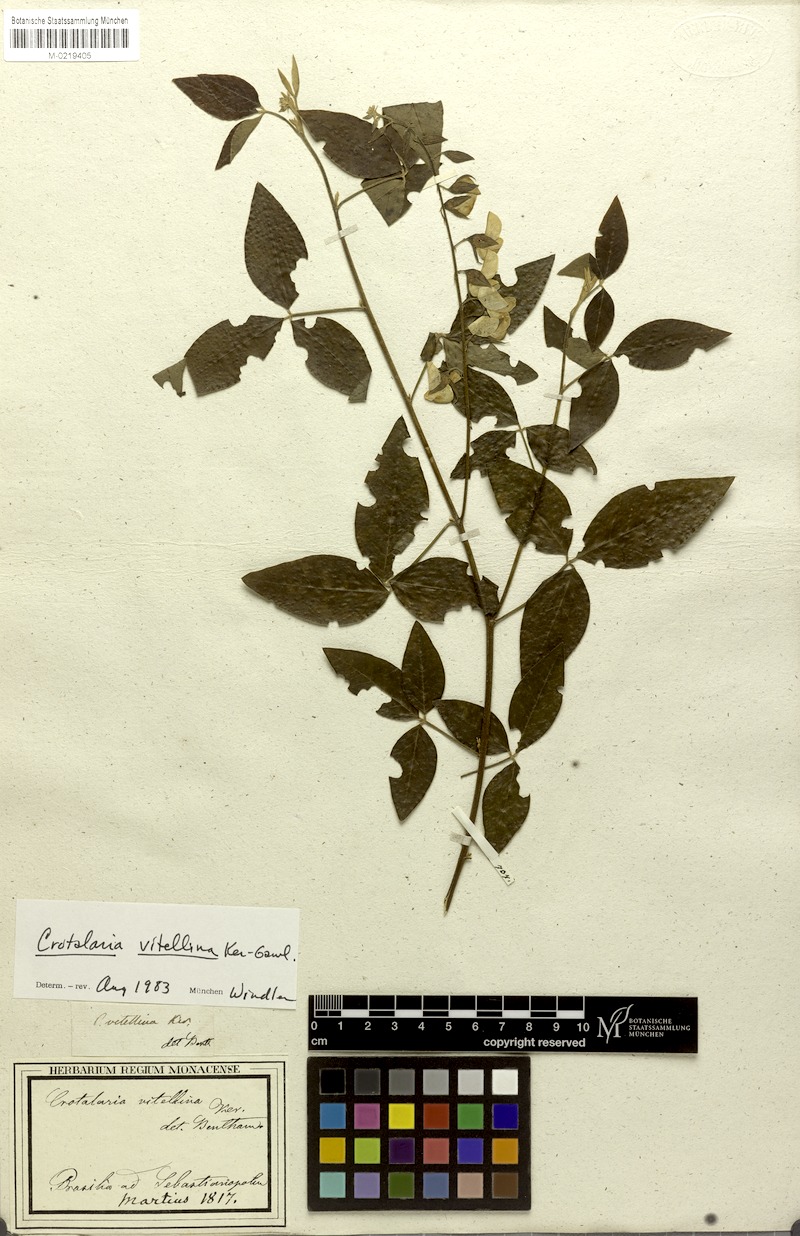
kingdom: Plantae
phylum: Tracheophyta
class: Magnoliopsida
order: Fabales
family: Fabaceae
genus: Crotalaria
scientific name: Crotalaria vitellina
